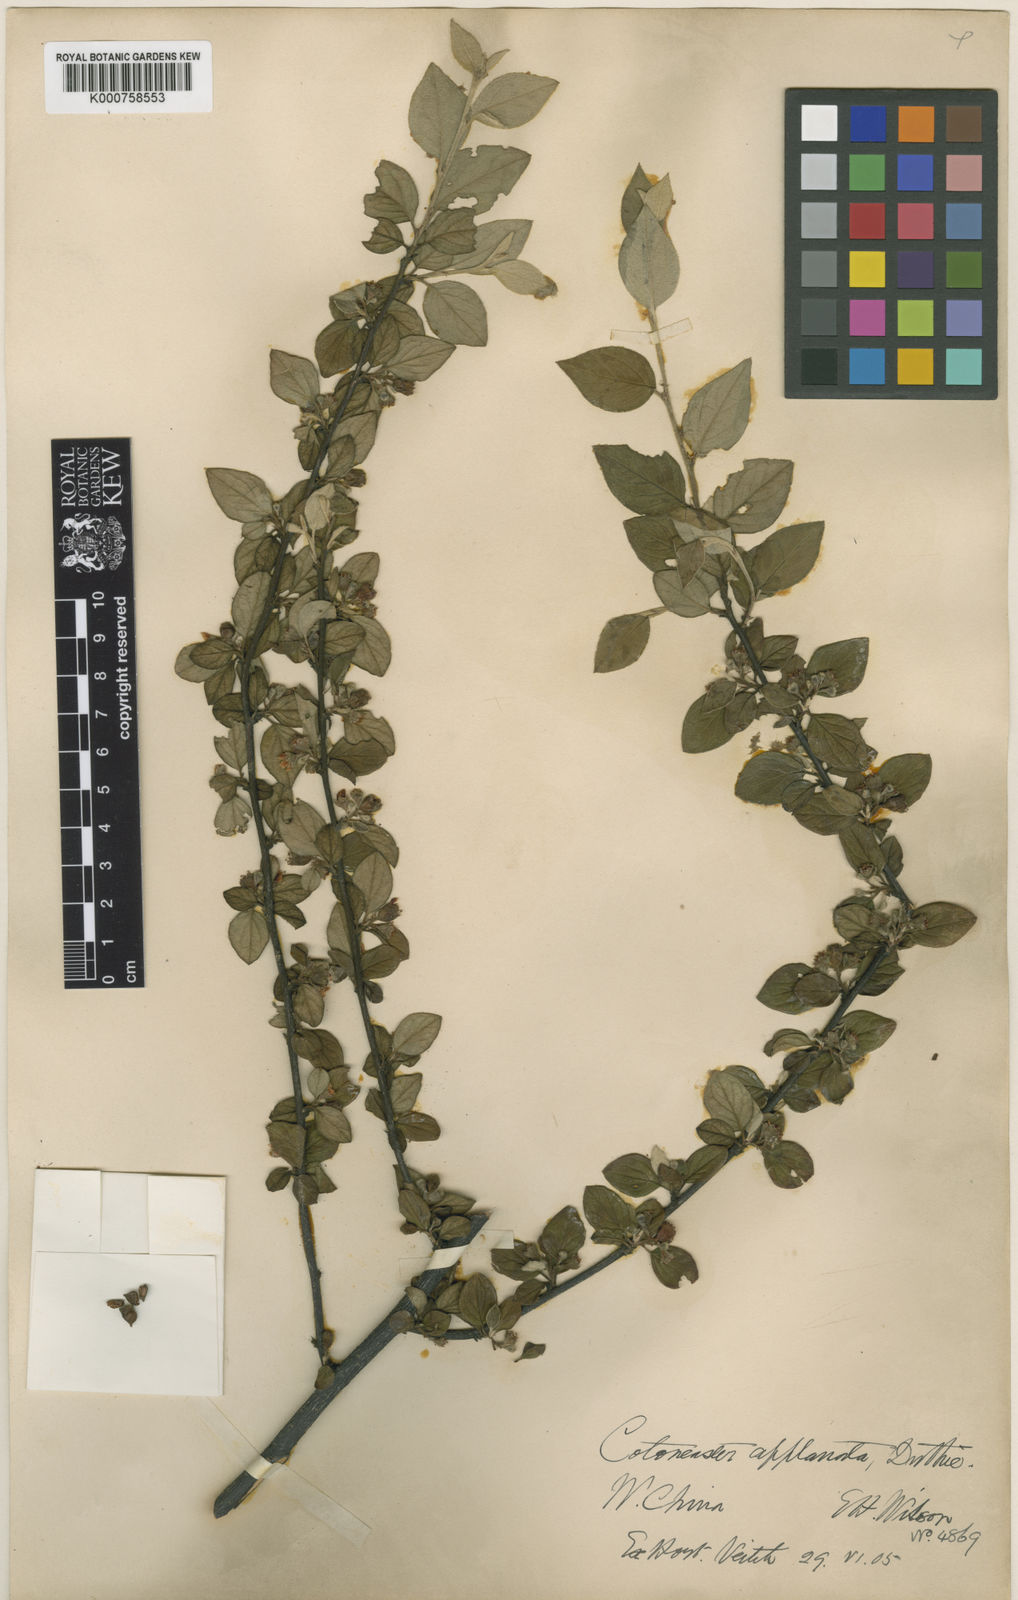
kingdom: Plantae
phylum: Tracheophyta
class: Magnoliopsida
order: Rosales
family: Rosaceae
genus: Cotoneaster
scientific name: Cotoneaster
